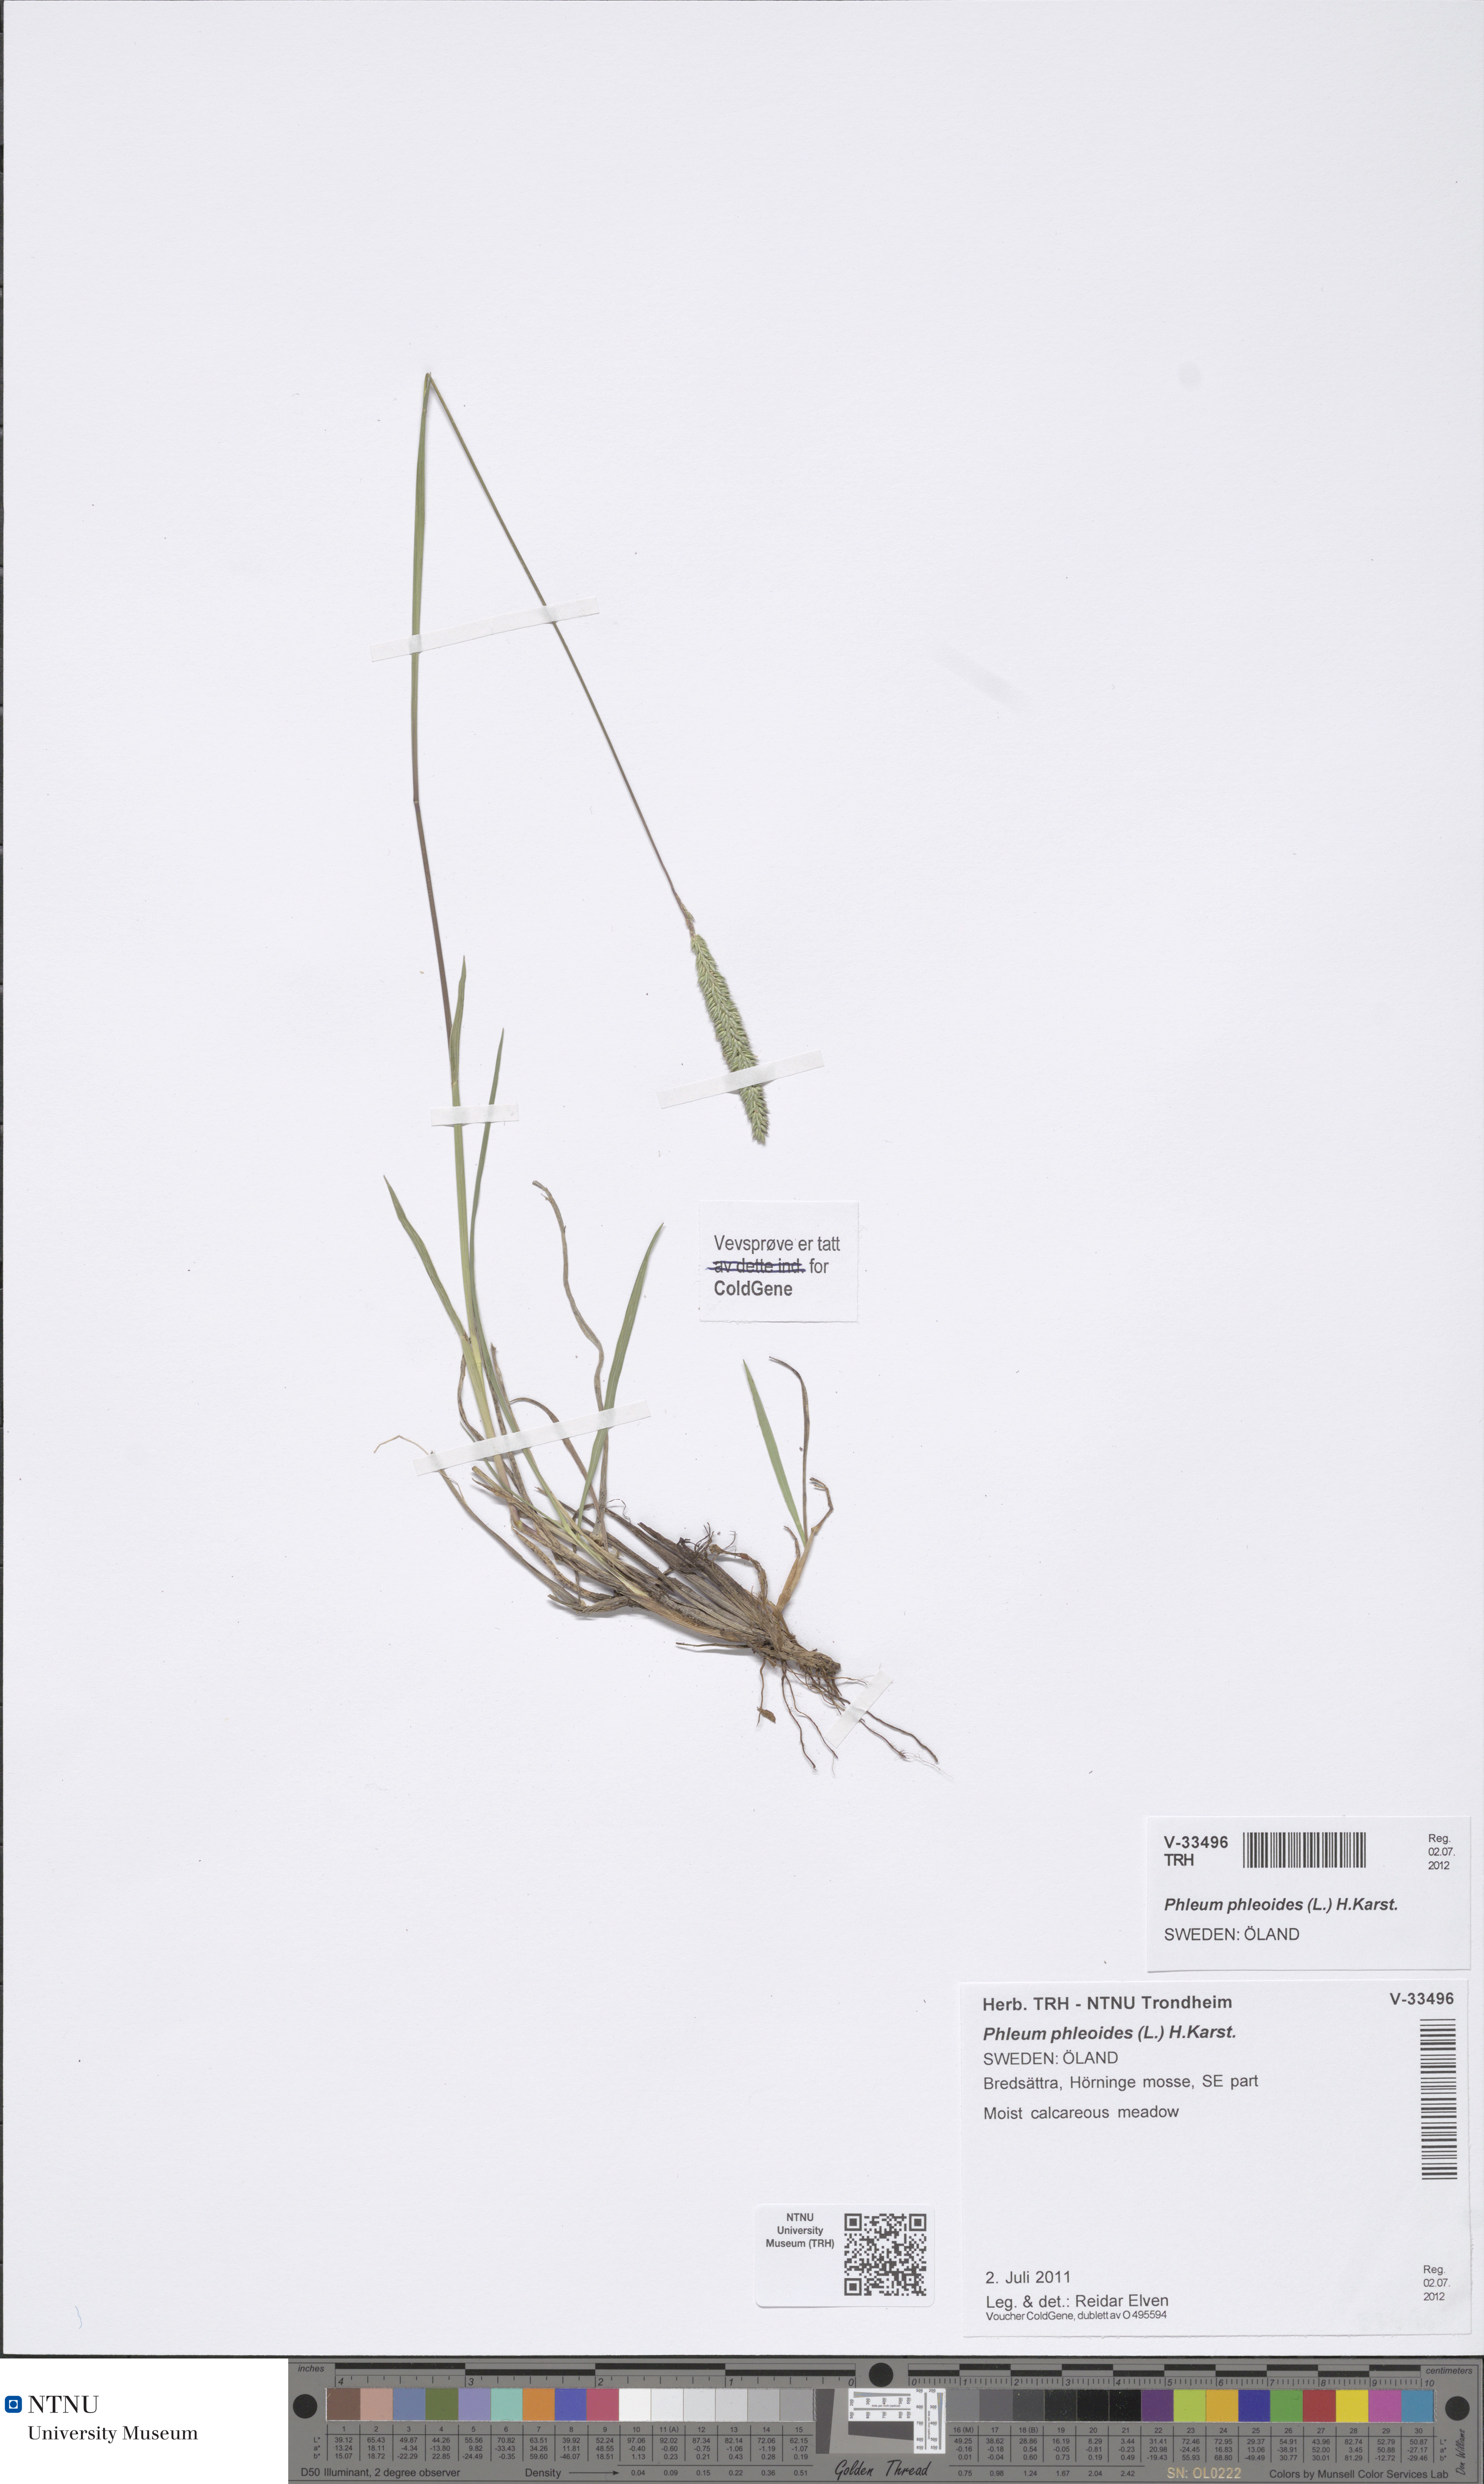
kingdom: Plantae
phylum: Tracheophyta
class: Liliopsida
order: Poales
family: Poaceae
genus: Phleum
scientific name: Phleum phleoides
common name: Purple-stem cat's-tail
